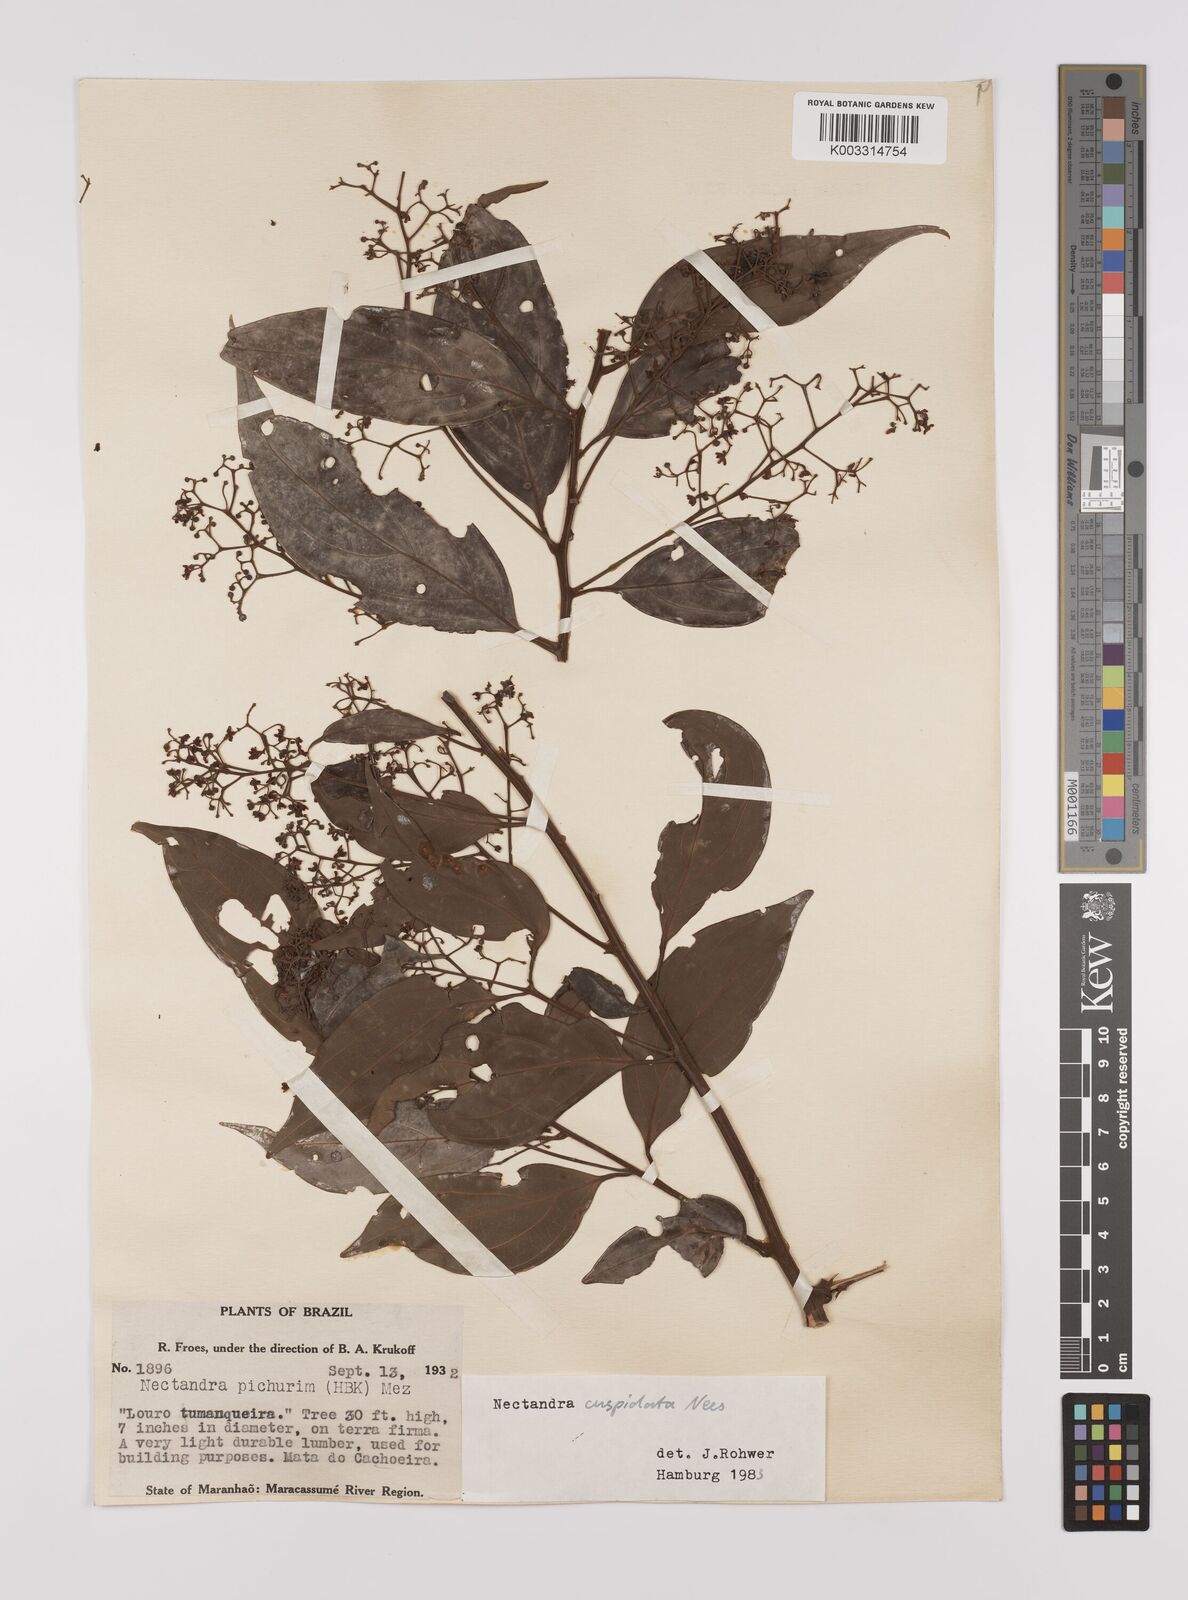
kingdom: Plantae
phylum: Tracheophyta
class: Magnoliopsida
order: Laurales
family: Lauraceae
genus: Nectandra
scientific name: Nectandra cuspidata
